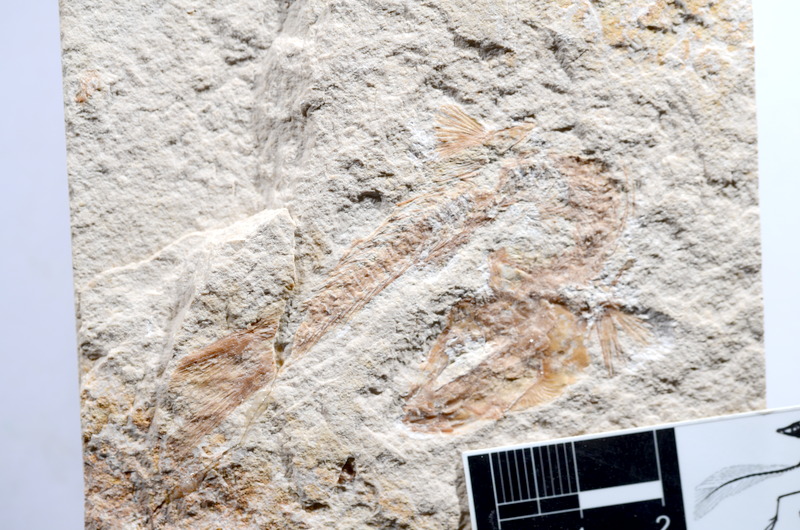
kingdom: Animalia
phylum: Chordata
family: Ascalaboidae
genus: Tharsis
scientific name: Tharsis dubius
